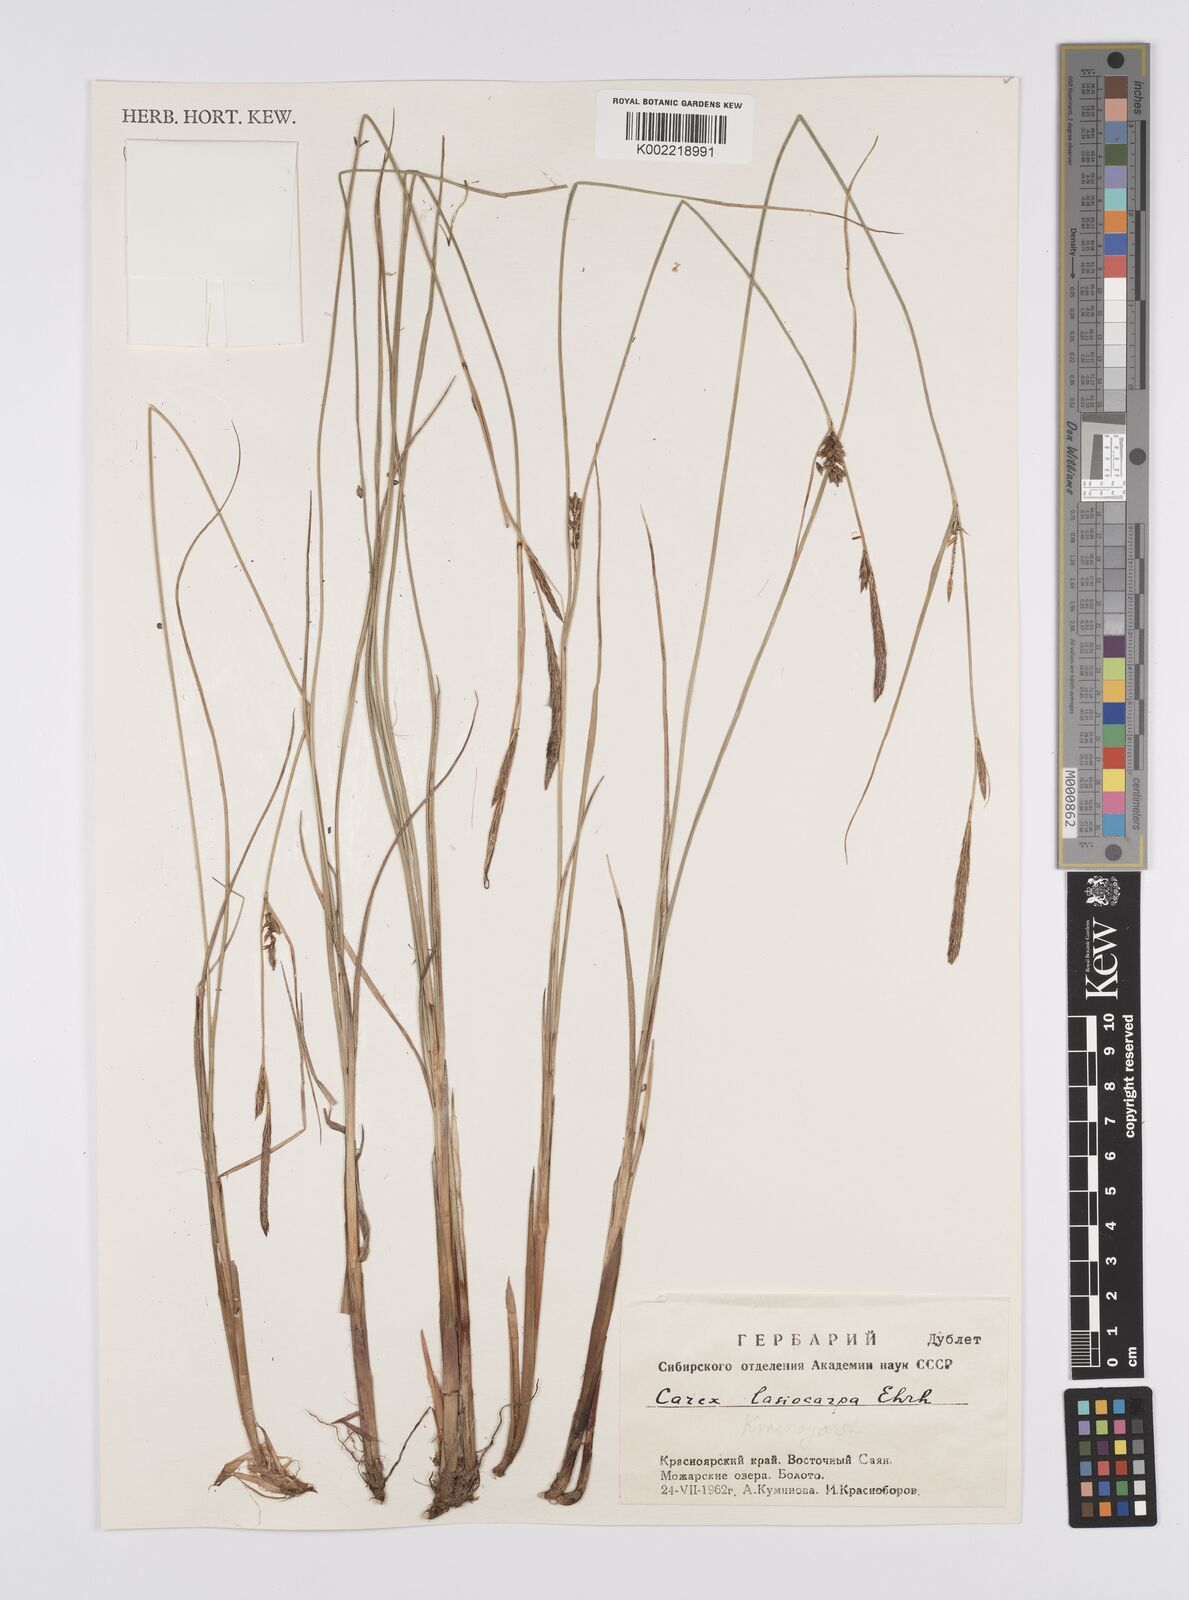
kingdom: Plantae
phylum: Tracheophyta
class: Liliopsida
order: Poales
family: Cyperaceae
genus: Carex
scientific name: Carex lasiocarpa
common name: Slender sedge
